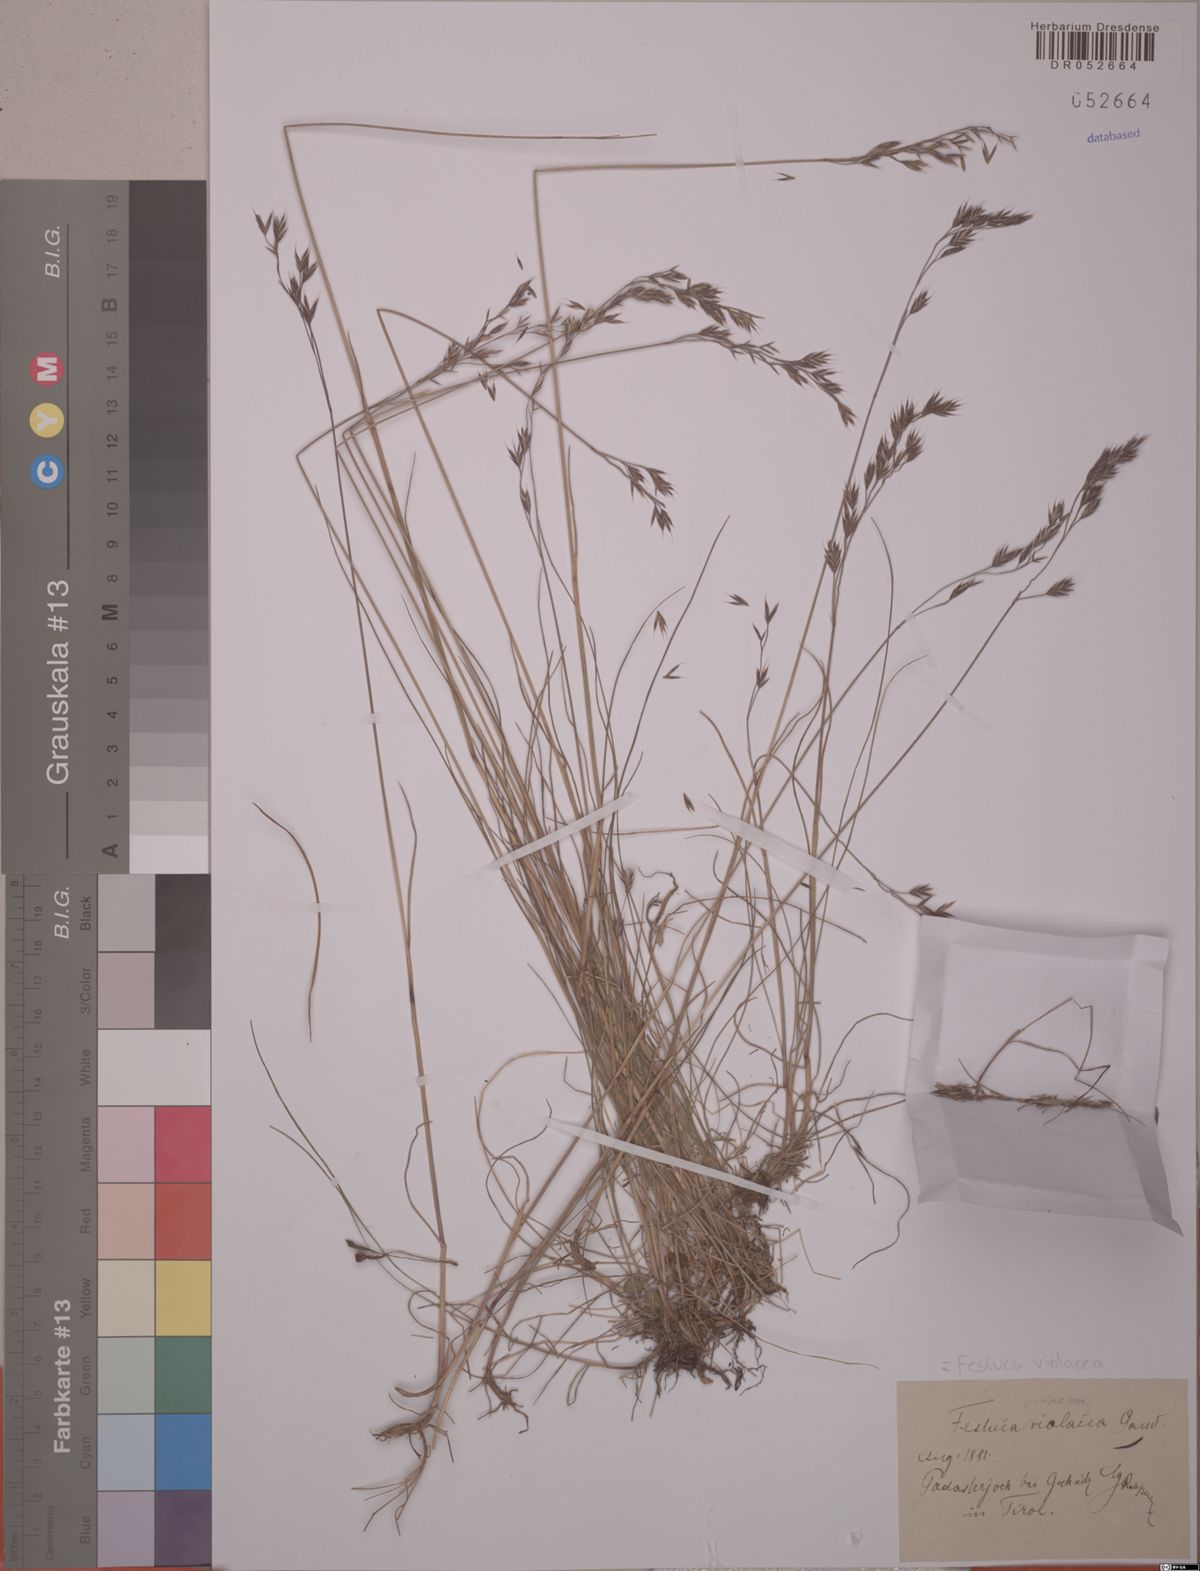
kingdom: Plantae
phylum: Tracheophyta
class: Liliopsida
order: Poales
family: Poaceae
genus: Festuca
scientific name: Festuca violacea
